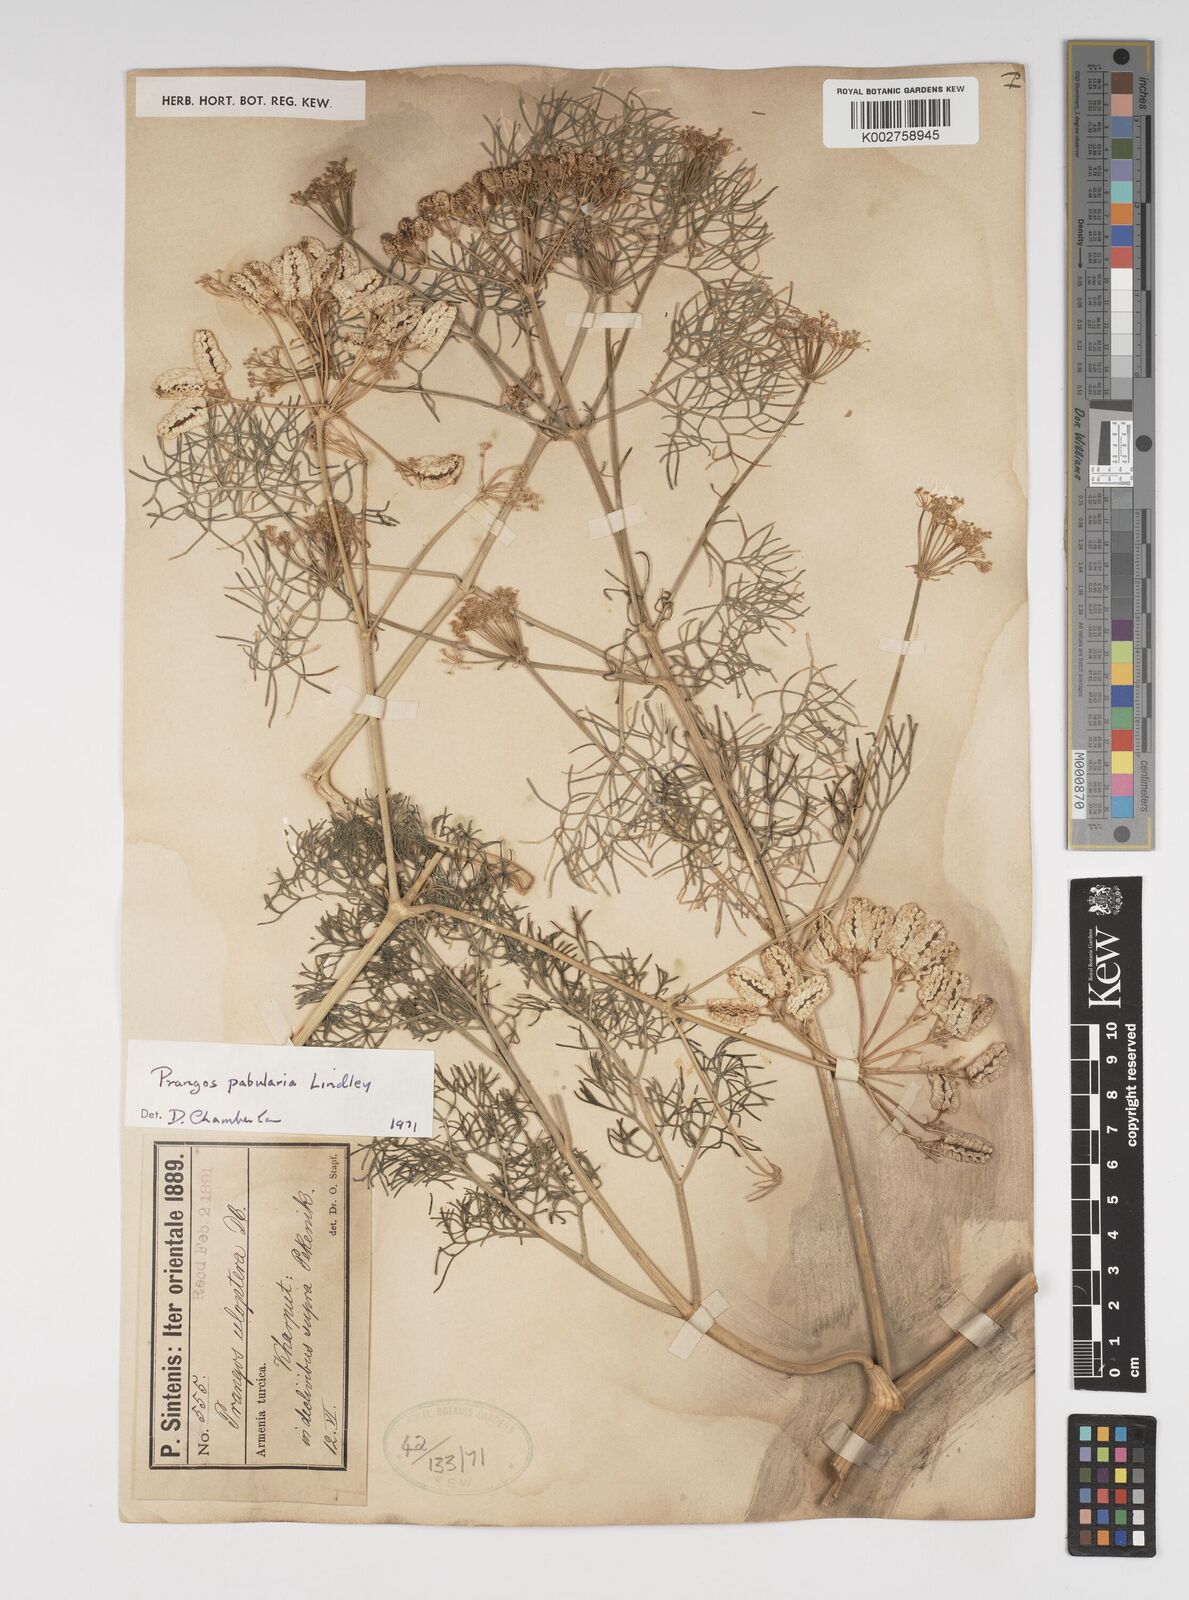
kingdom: Plantae
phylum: Tracheophyta
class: Magnoliopsida
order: Apiales
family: Apiaceae
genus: Prangos
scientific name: Prangos pabularia
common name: Yugan
